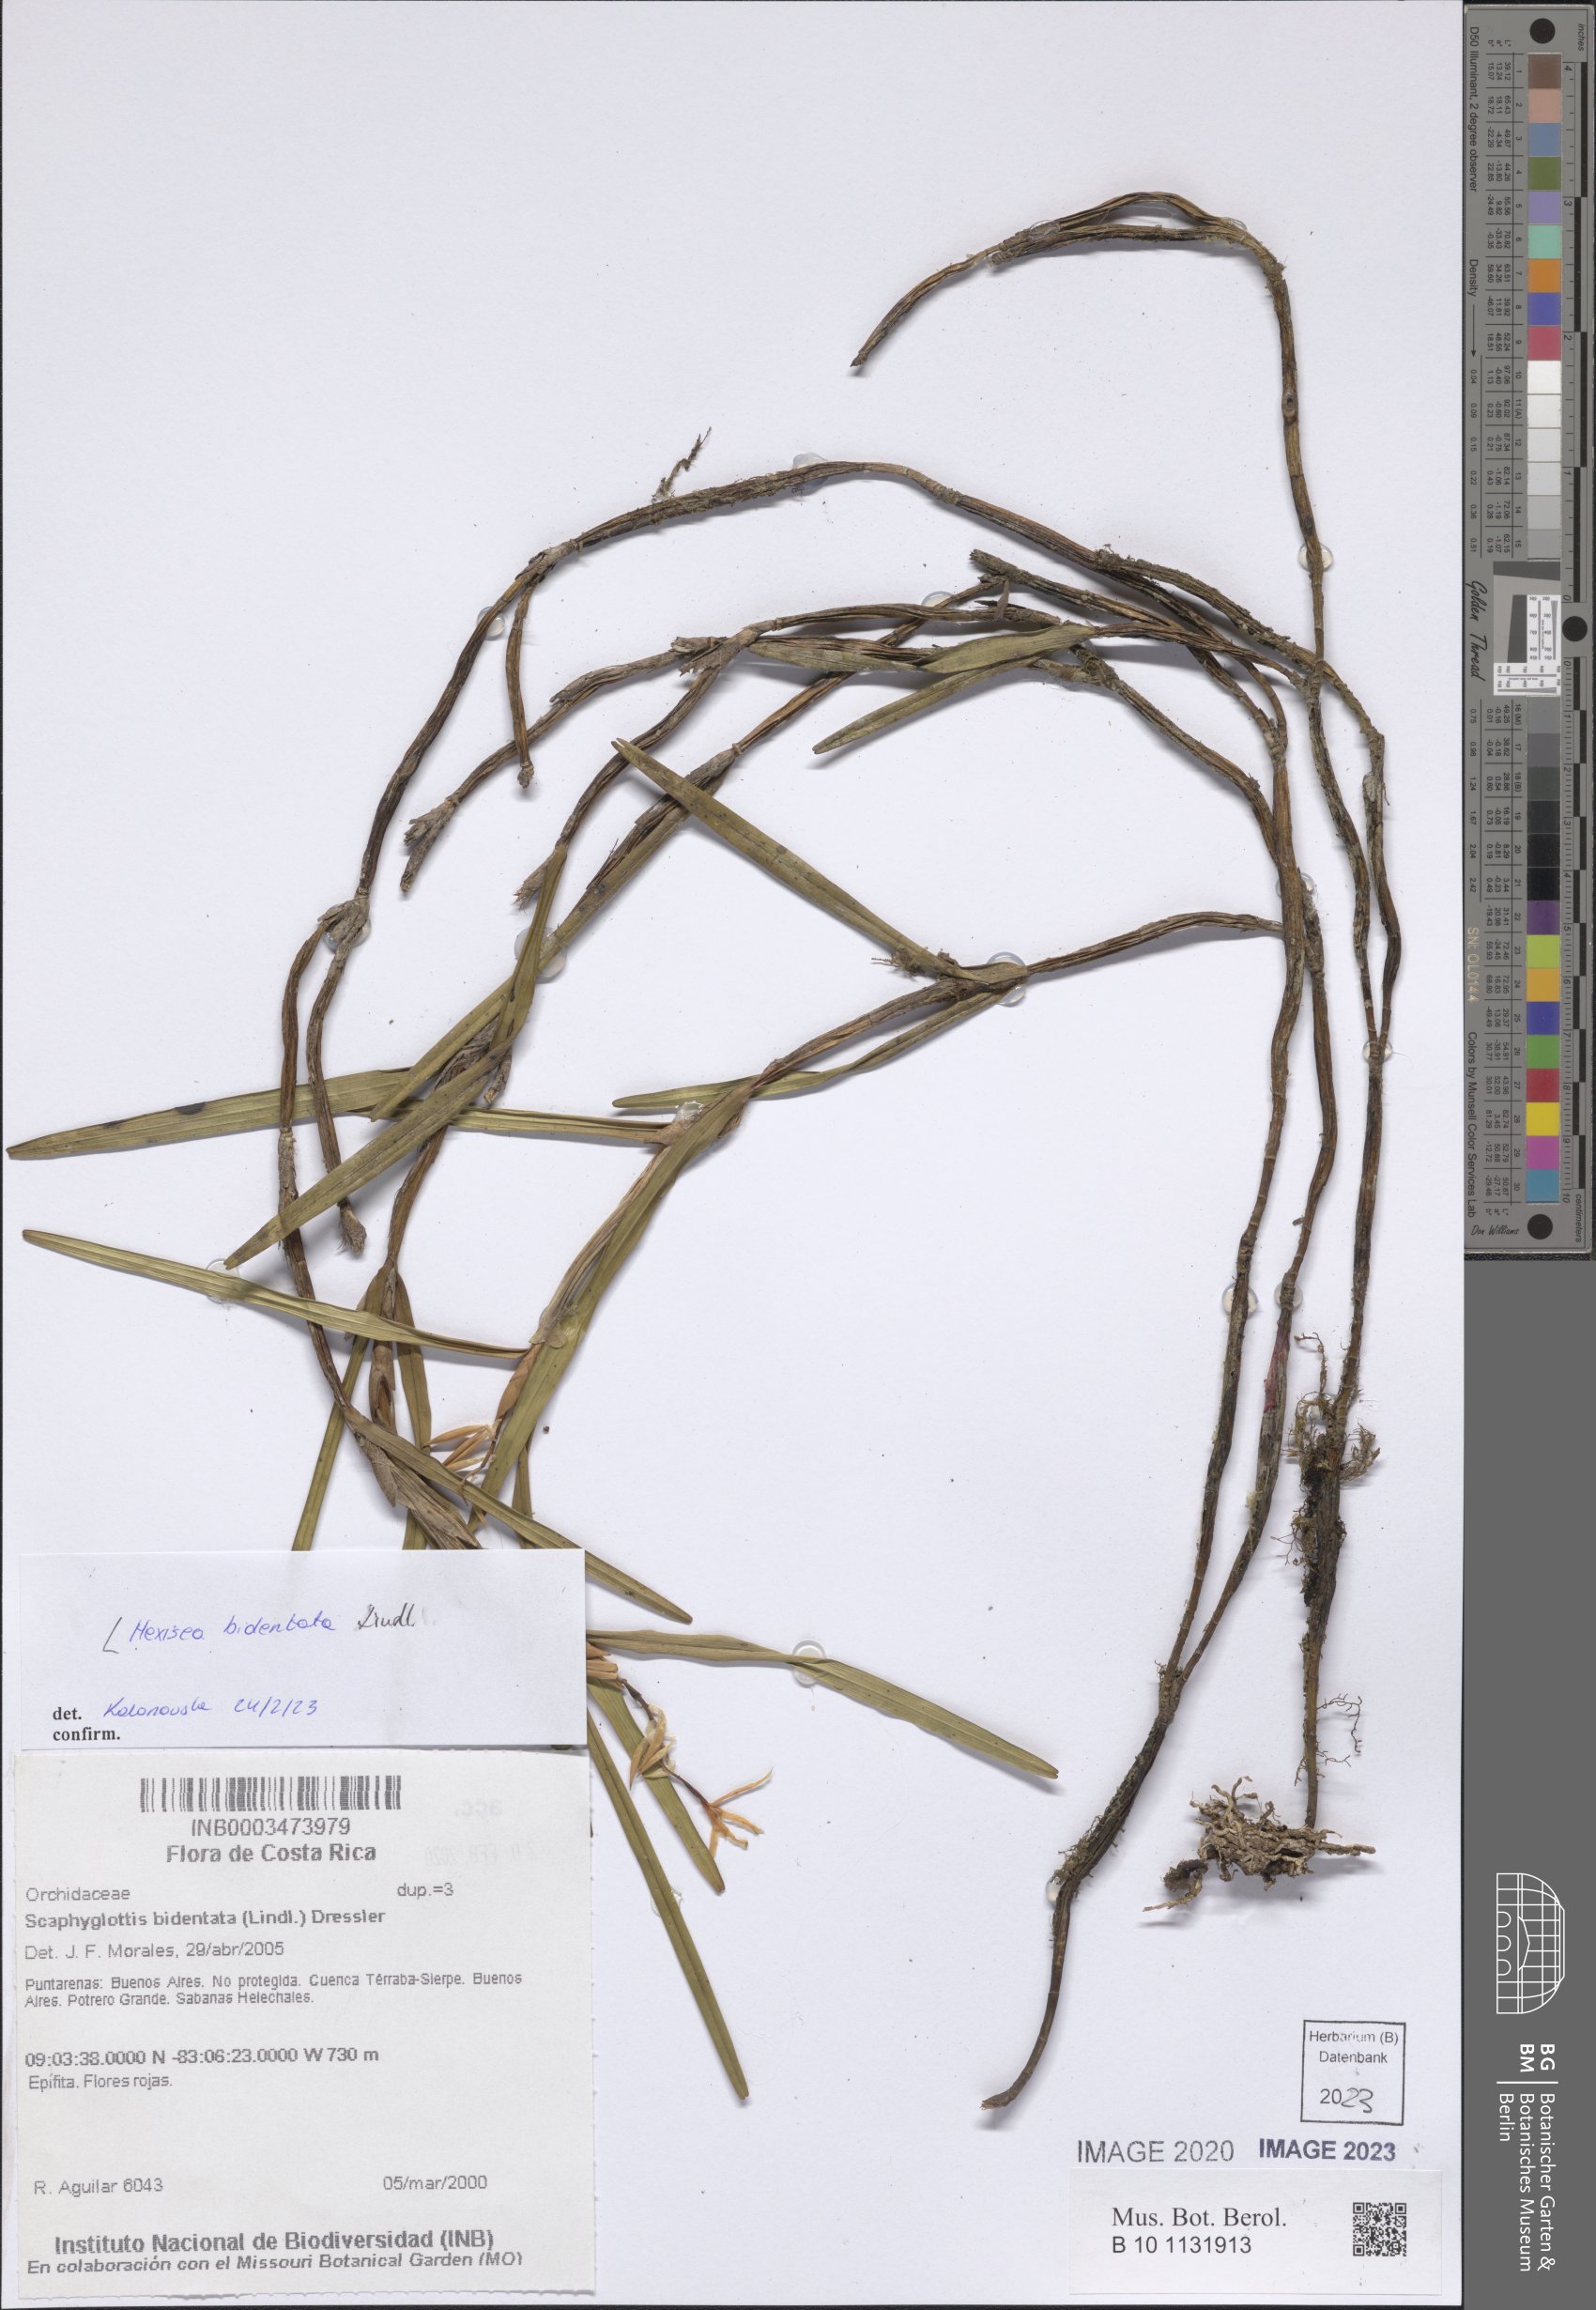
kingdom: Plantae
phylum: Tracheophyta
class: Liliopsida
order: Asparagales
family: Orchidaceae
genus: Scaphyglottis
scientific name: Scaphyglottis bidentata
